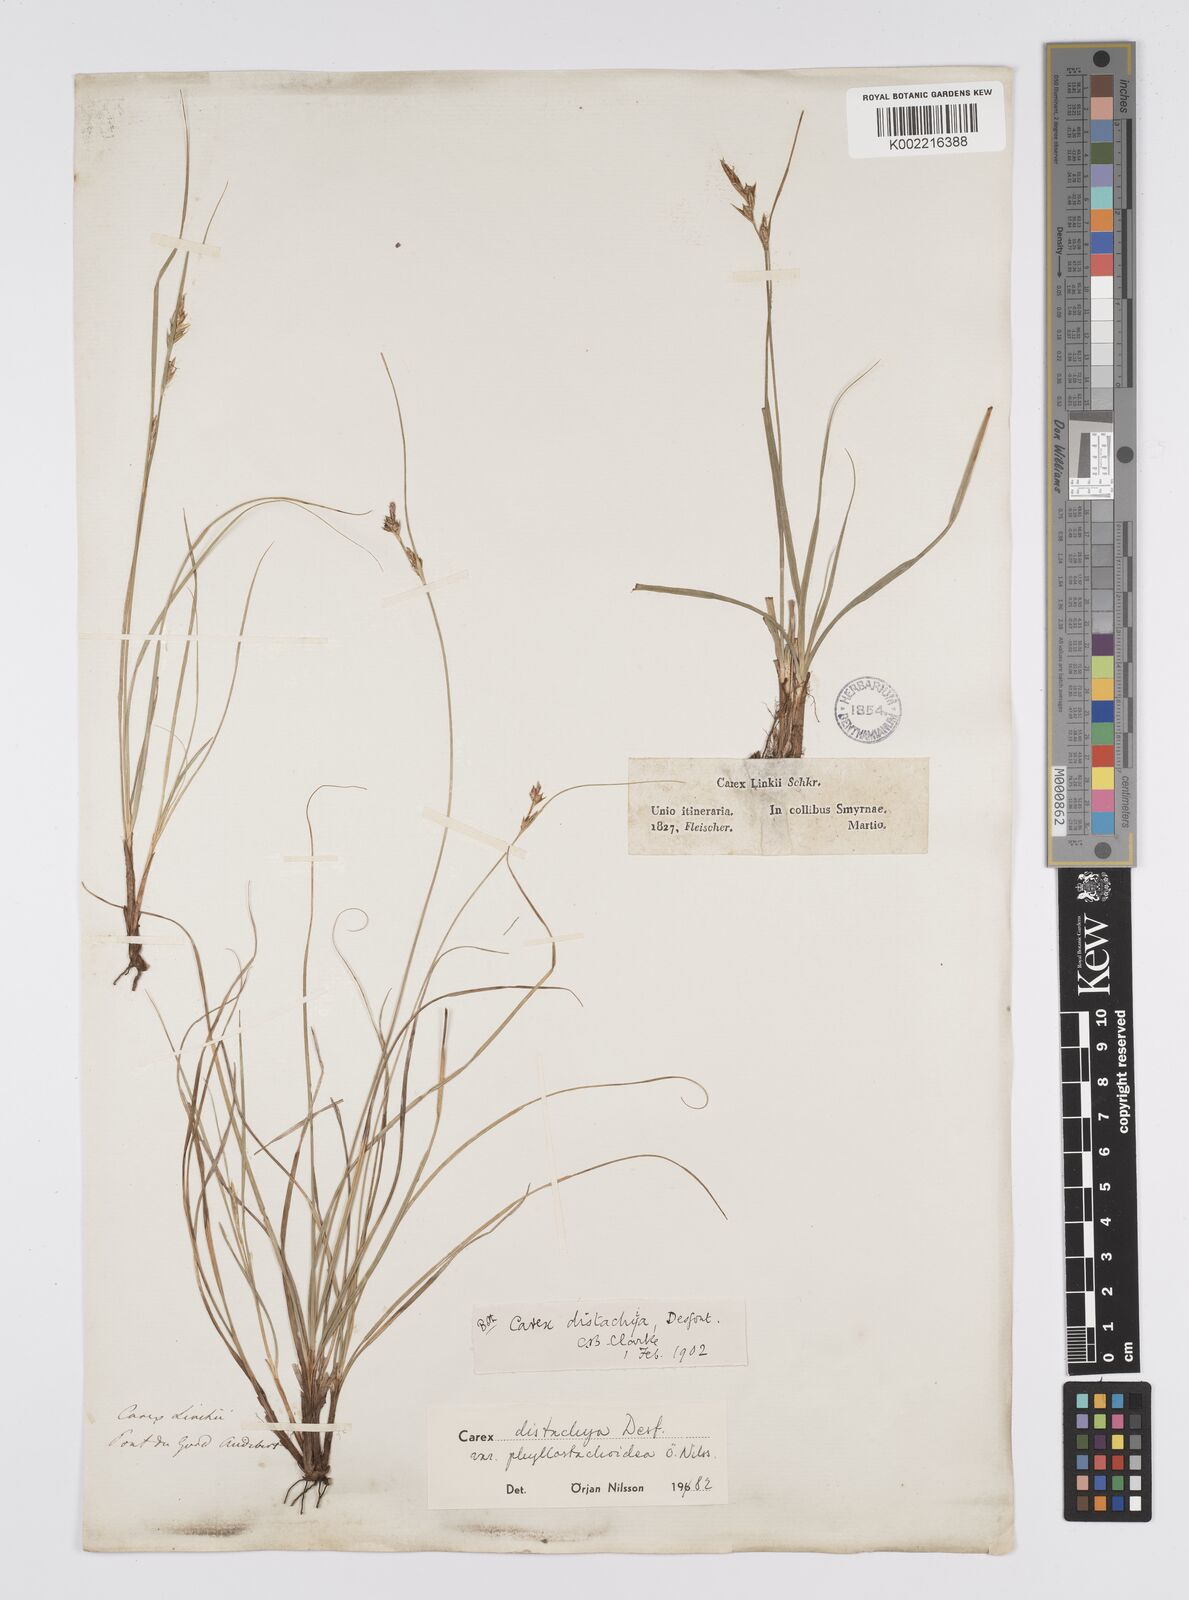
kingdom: Plantae
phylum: Tracheophyta
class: Liliopsida
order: Poales
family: Cyperaceae
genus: Carex
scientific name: Carex distachya
